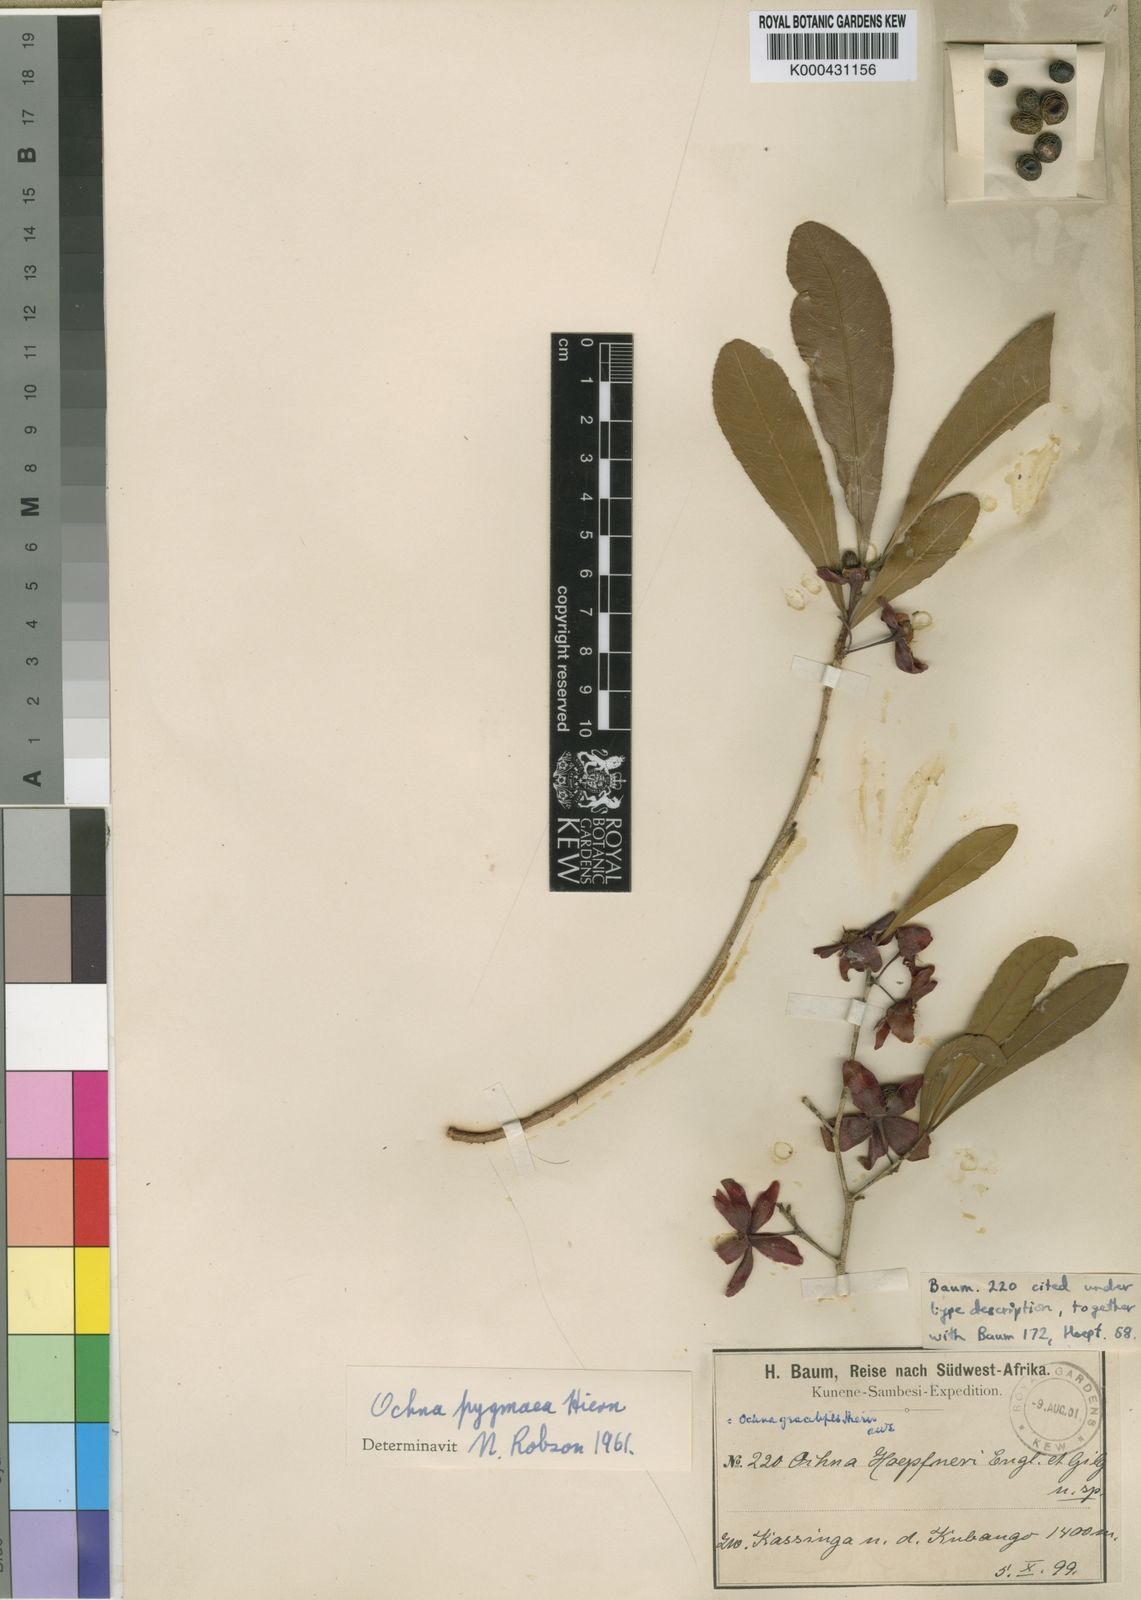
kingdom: Plantae
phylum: Tracheophyta
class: Magnoliopsida
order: Malpighiales
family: Ochnaceae
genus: Ochna
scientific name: Ochna pygmaea
